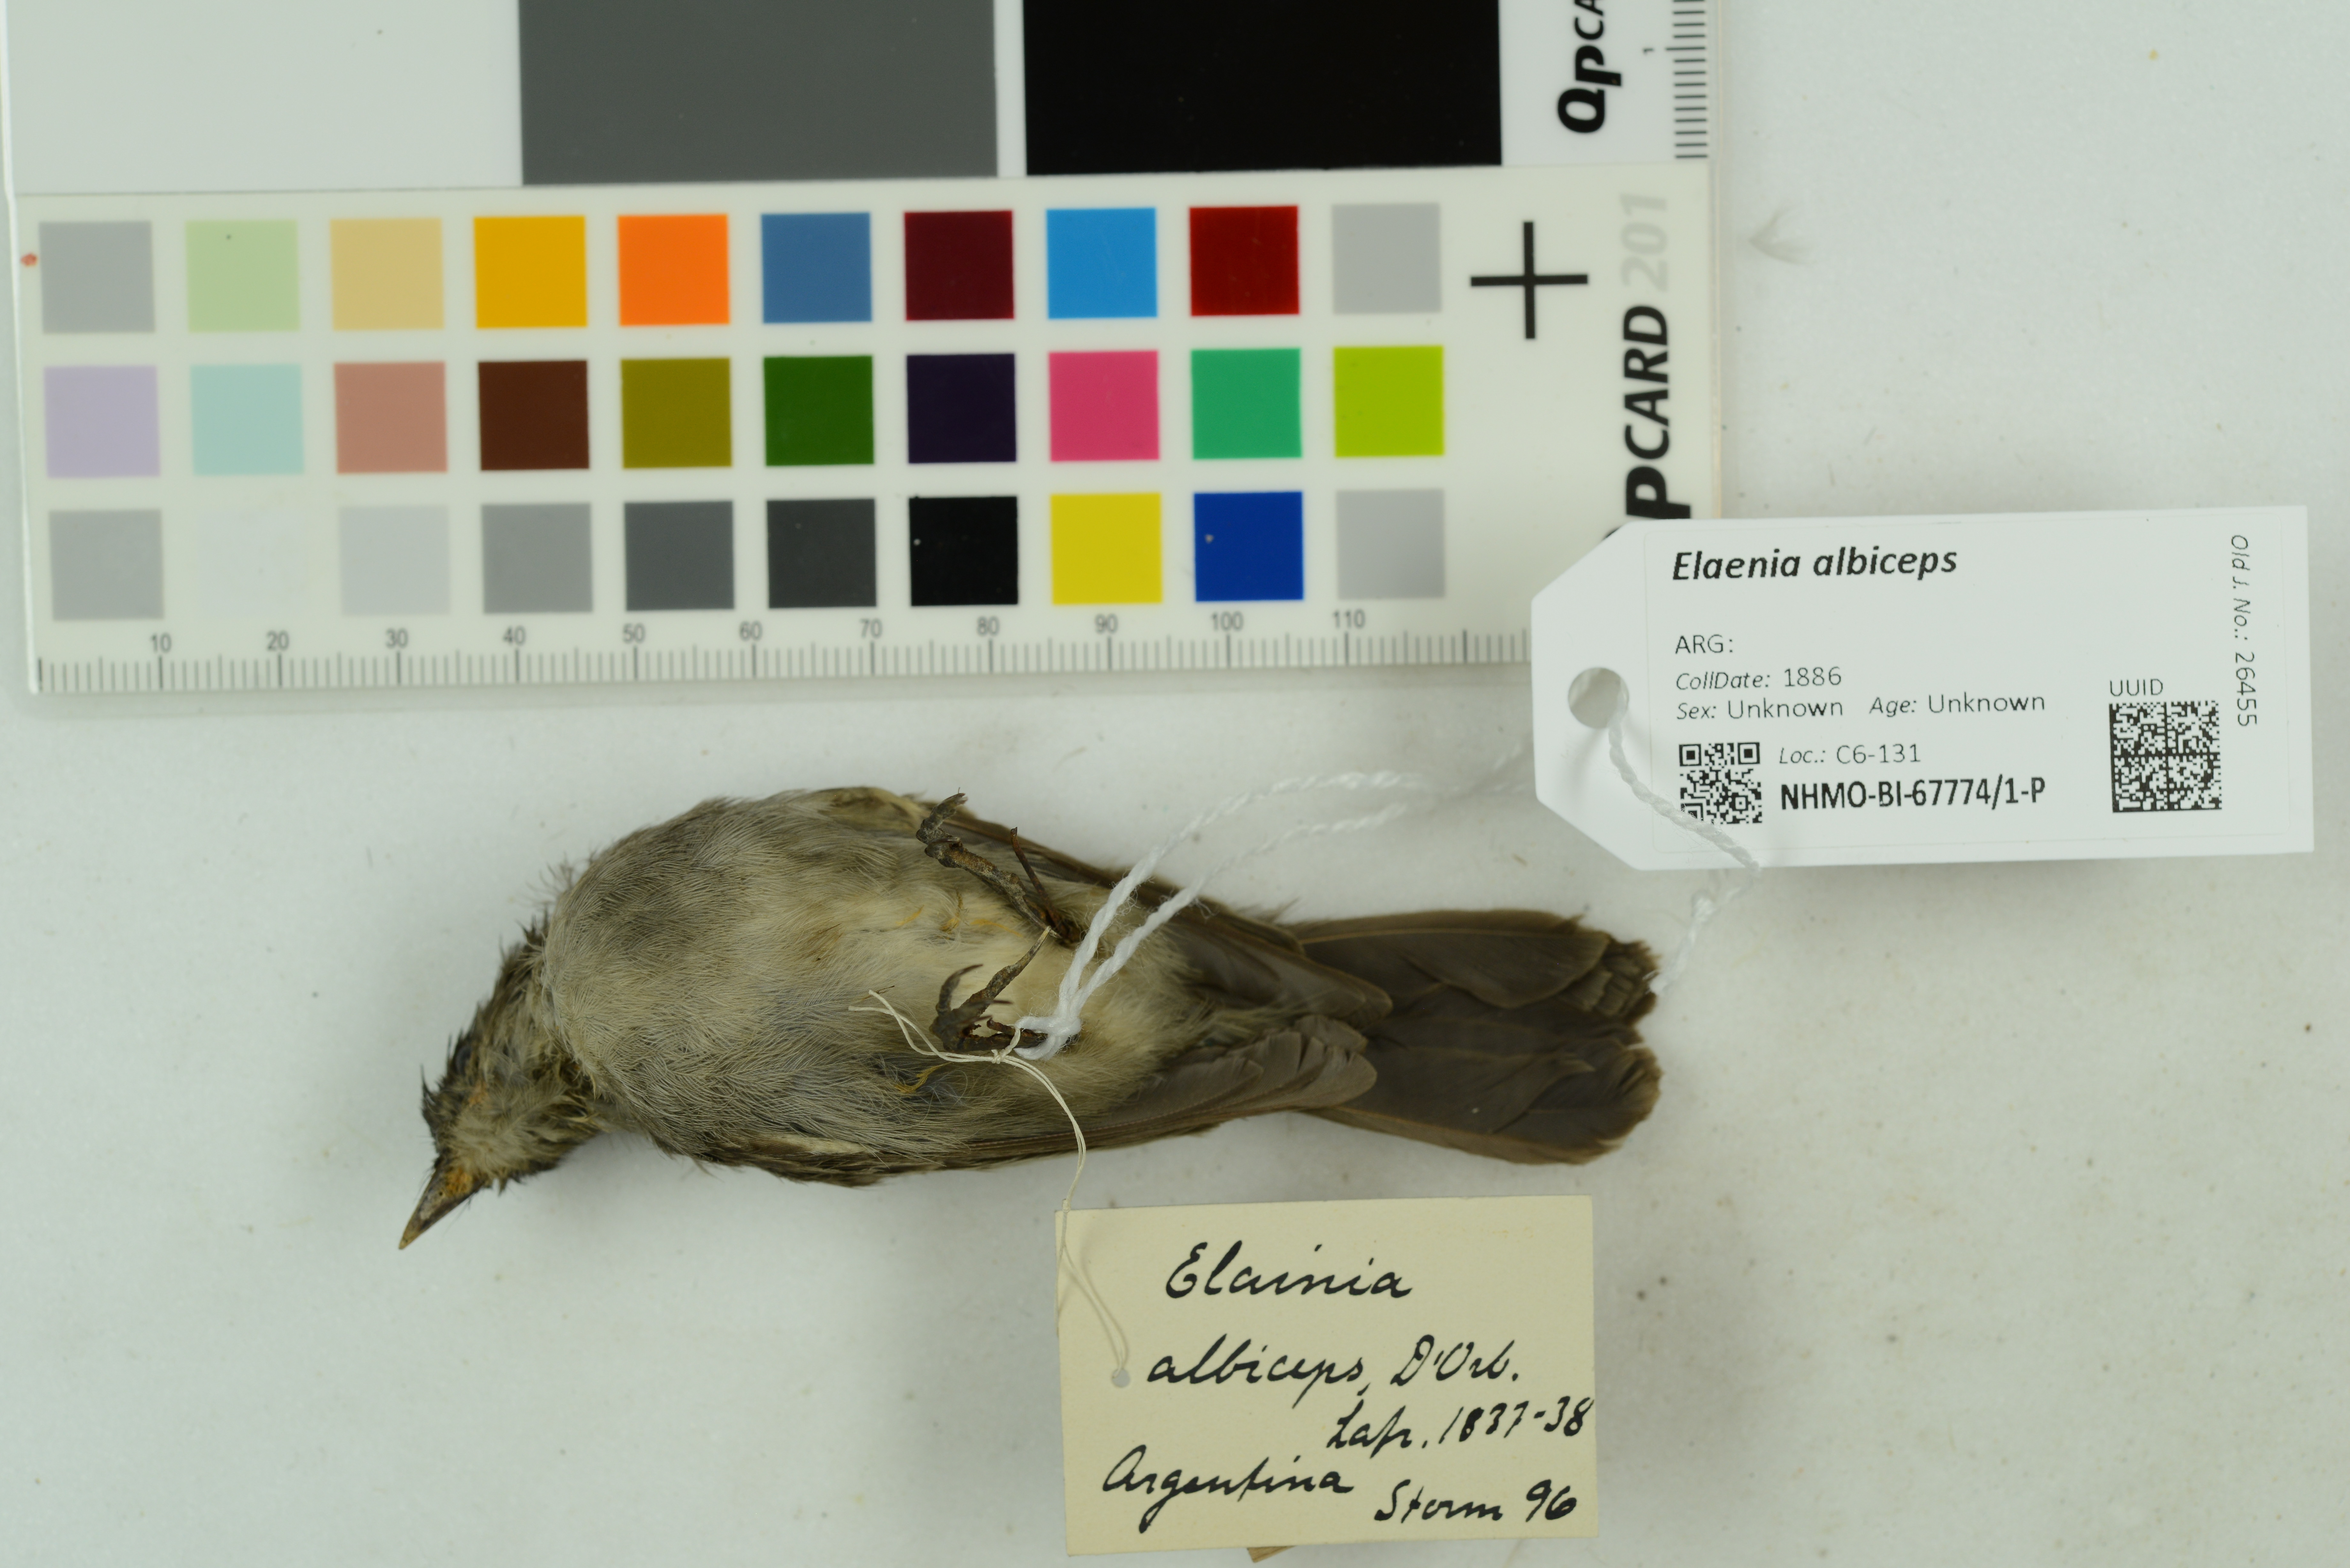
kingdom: Animalia
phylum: Chordata
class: Aves
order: Passeriformes
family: Tyrannidae
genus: Elaenia
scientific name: Elaenia albiceps
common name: White-crested elaenia
